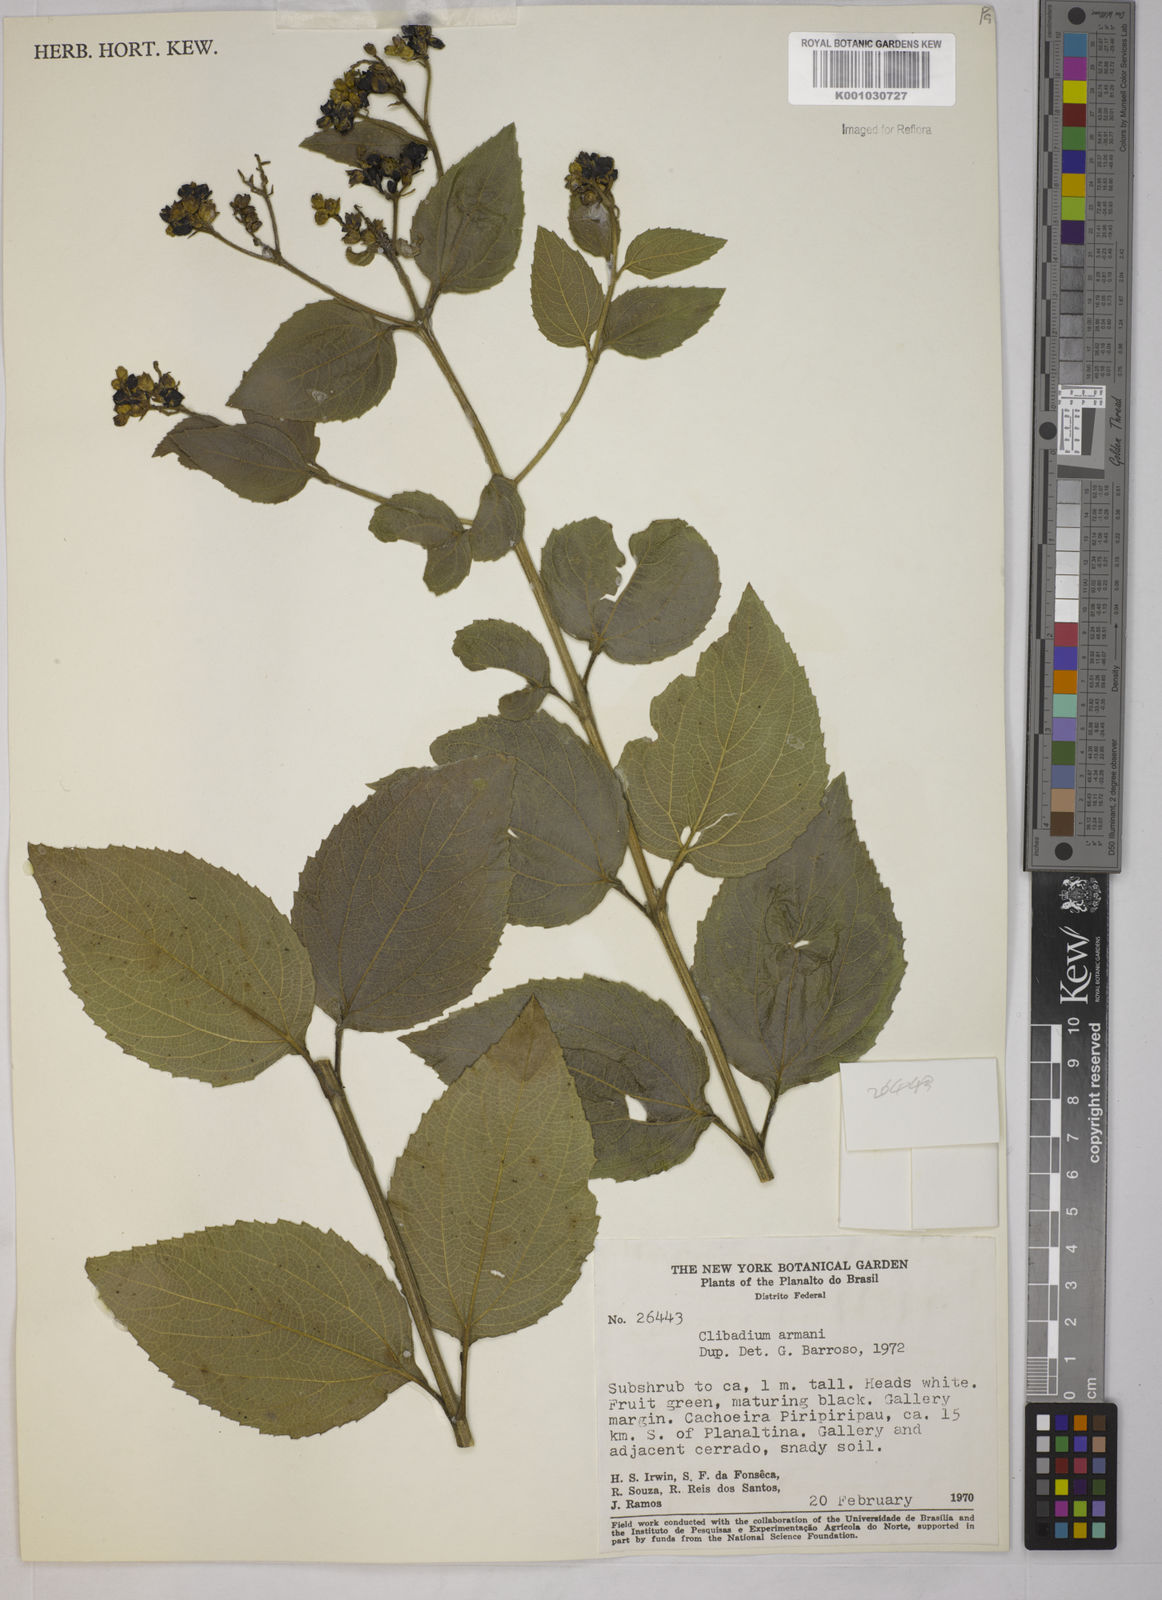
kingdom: Plantae
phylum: Tracheophyta
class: Magnoliopsida
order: Asterales
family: Asteraceae
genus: Clibadium
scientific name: Clibadium armanii
